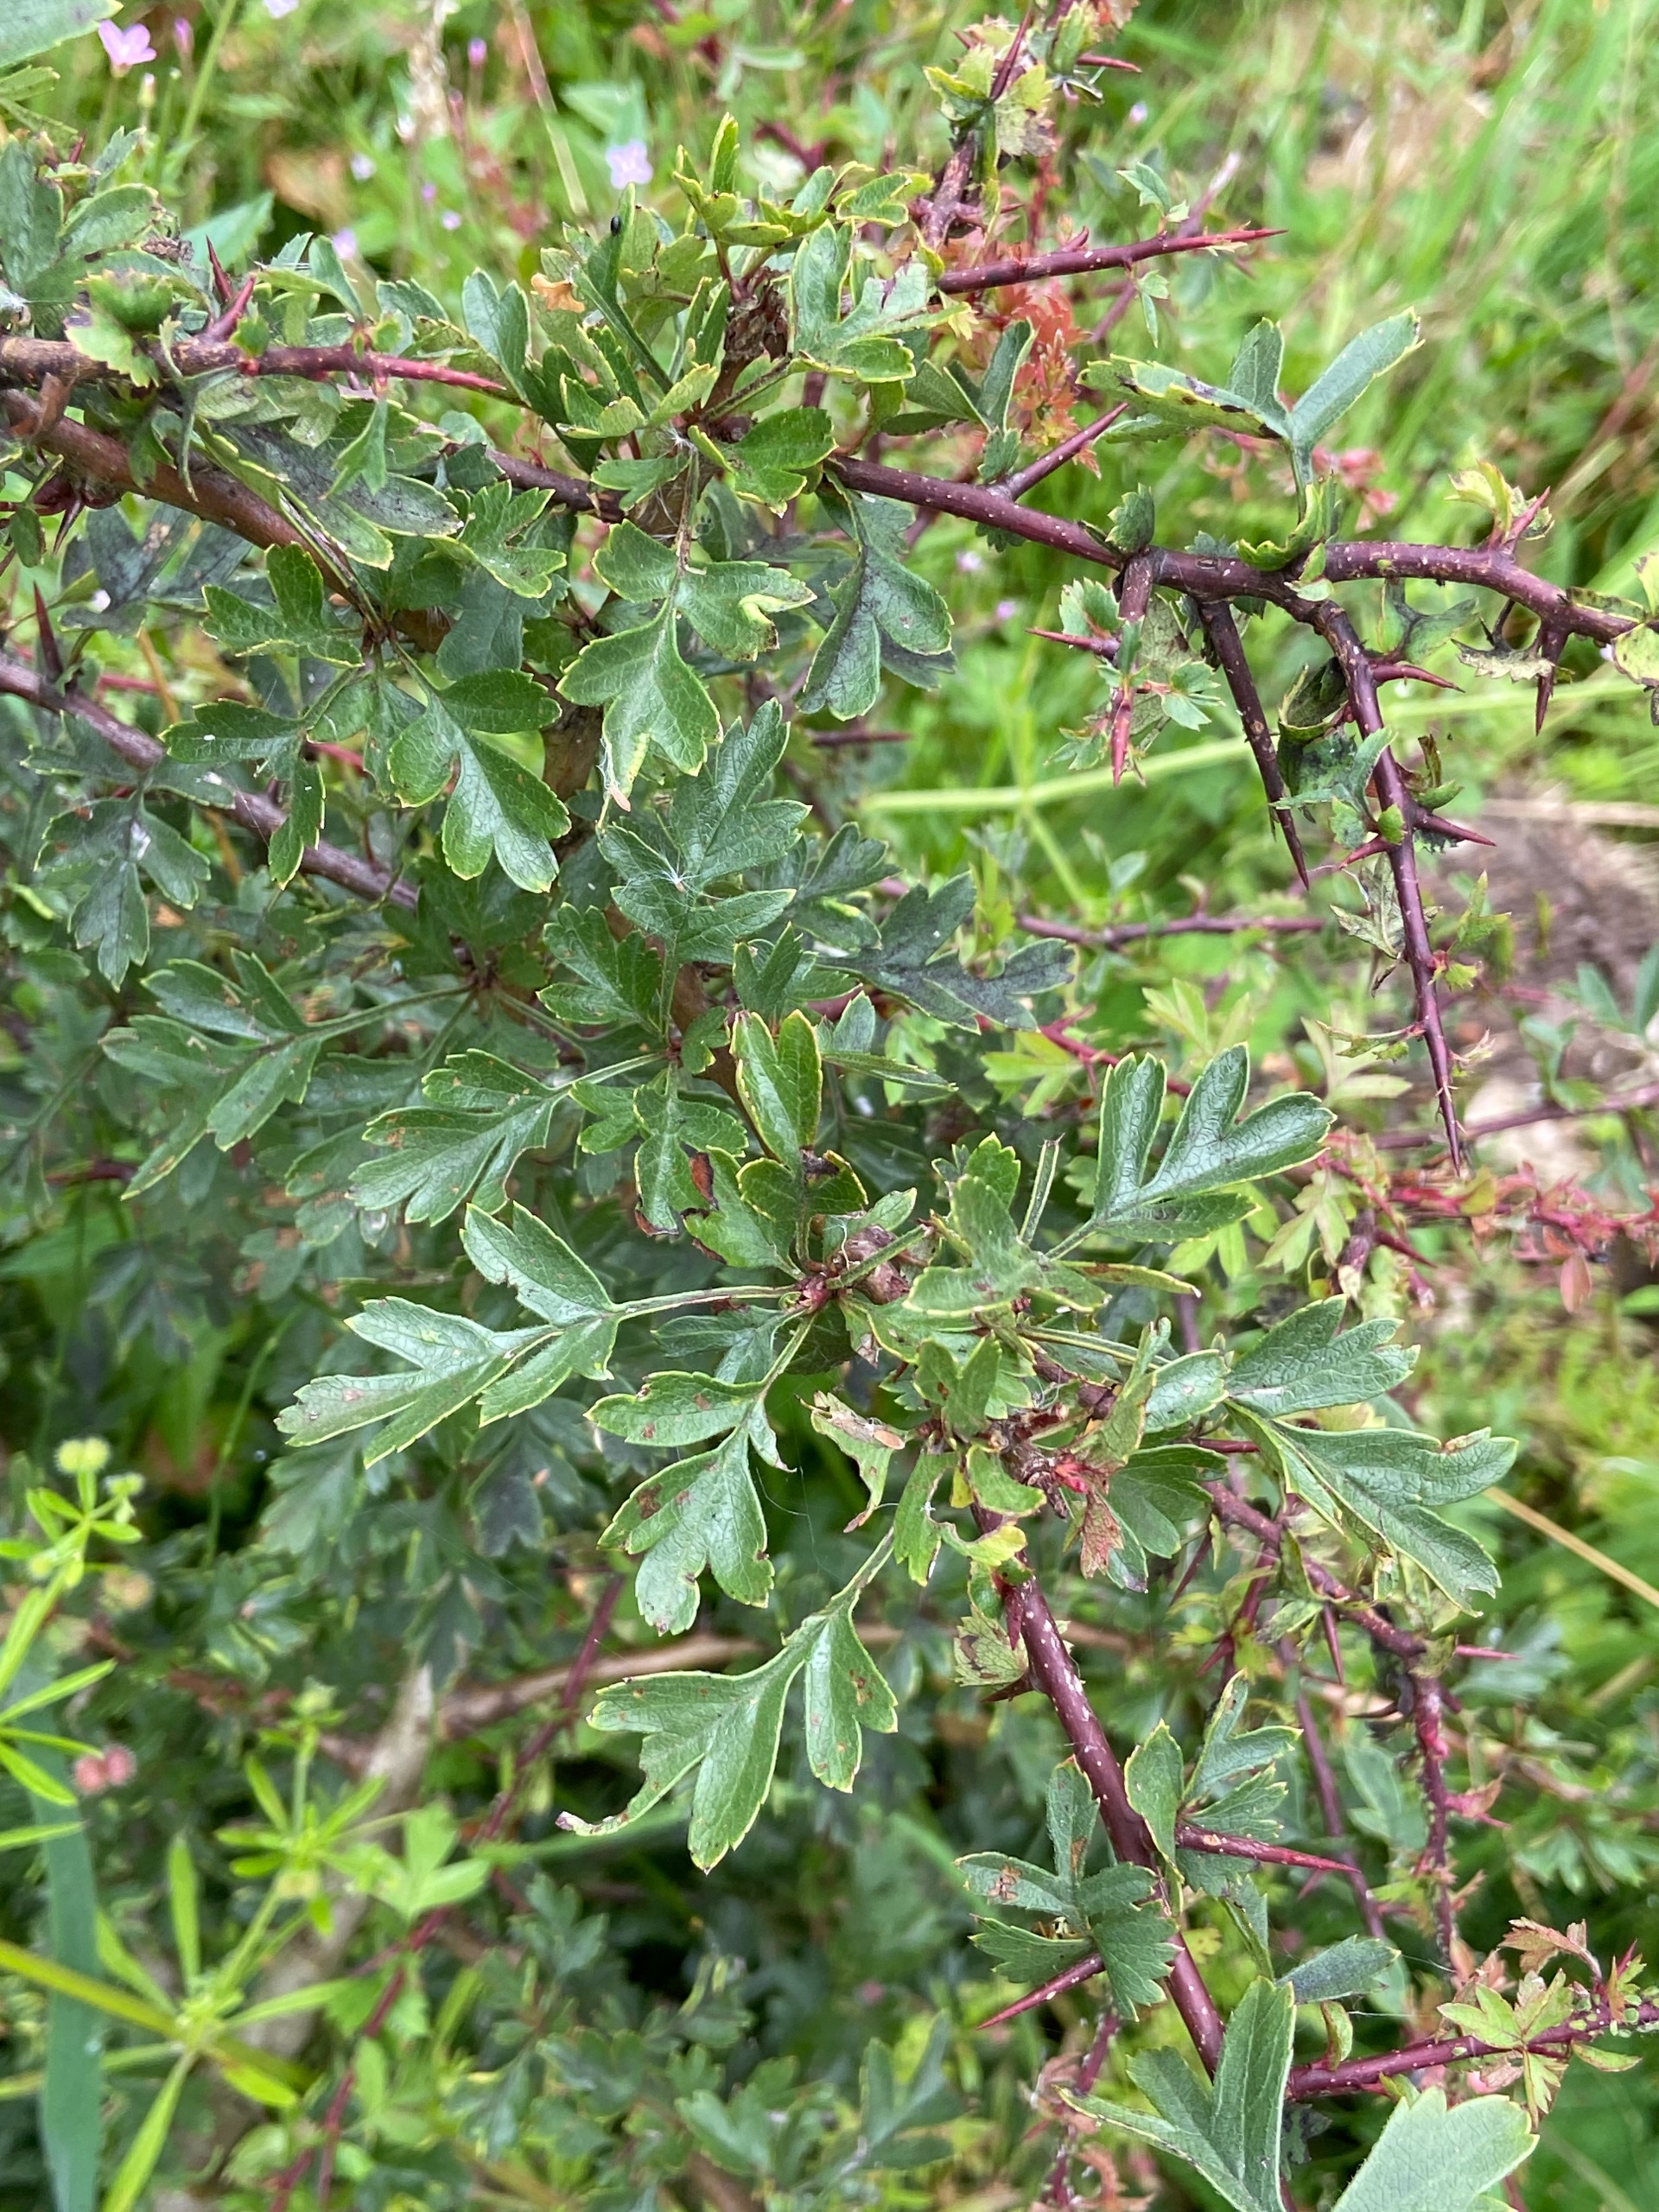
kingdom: Plantae
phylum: Tracheophyta
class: Magnoliopsida
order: Rosales
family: Rosaceae
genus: Crataegus
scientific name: Crataegus monogyna
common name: Engriflet hvidtjørn
